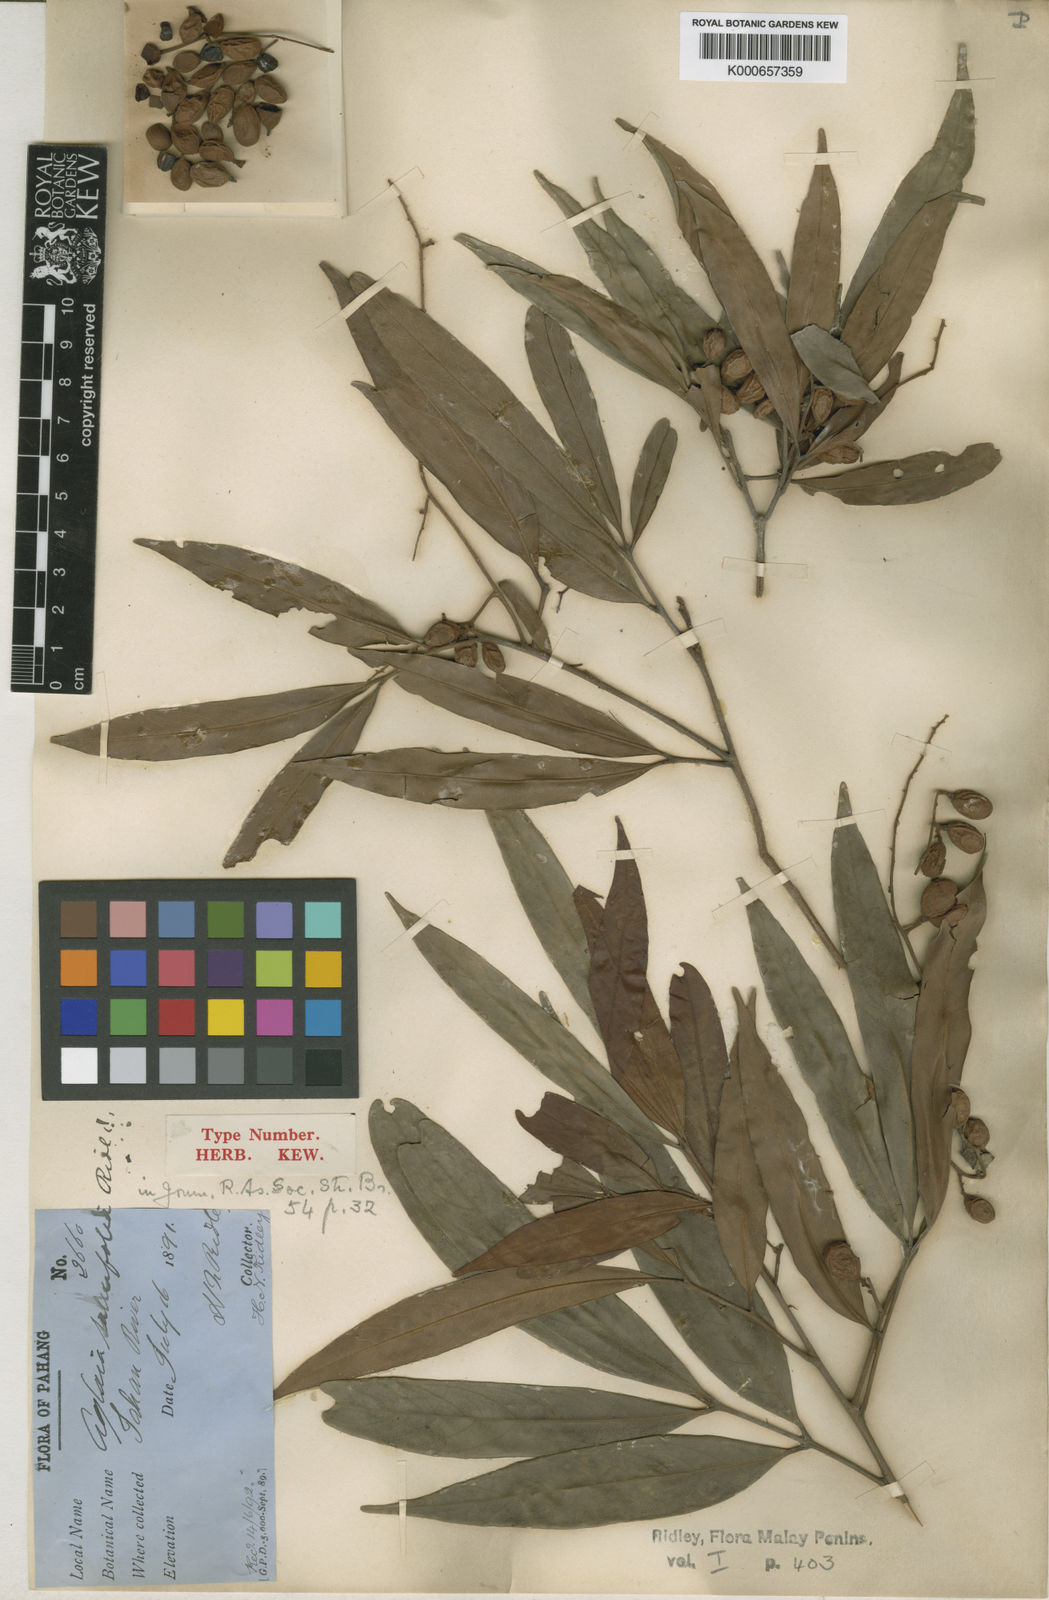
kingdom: Plantae
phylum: Tracheophyta
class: Magnoliopsida
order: Sapindales
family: Meliaceae
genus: Aglaia
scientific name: Aglaia
